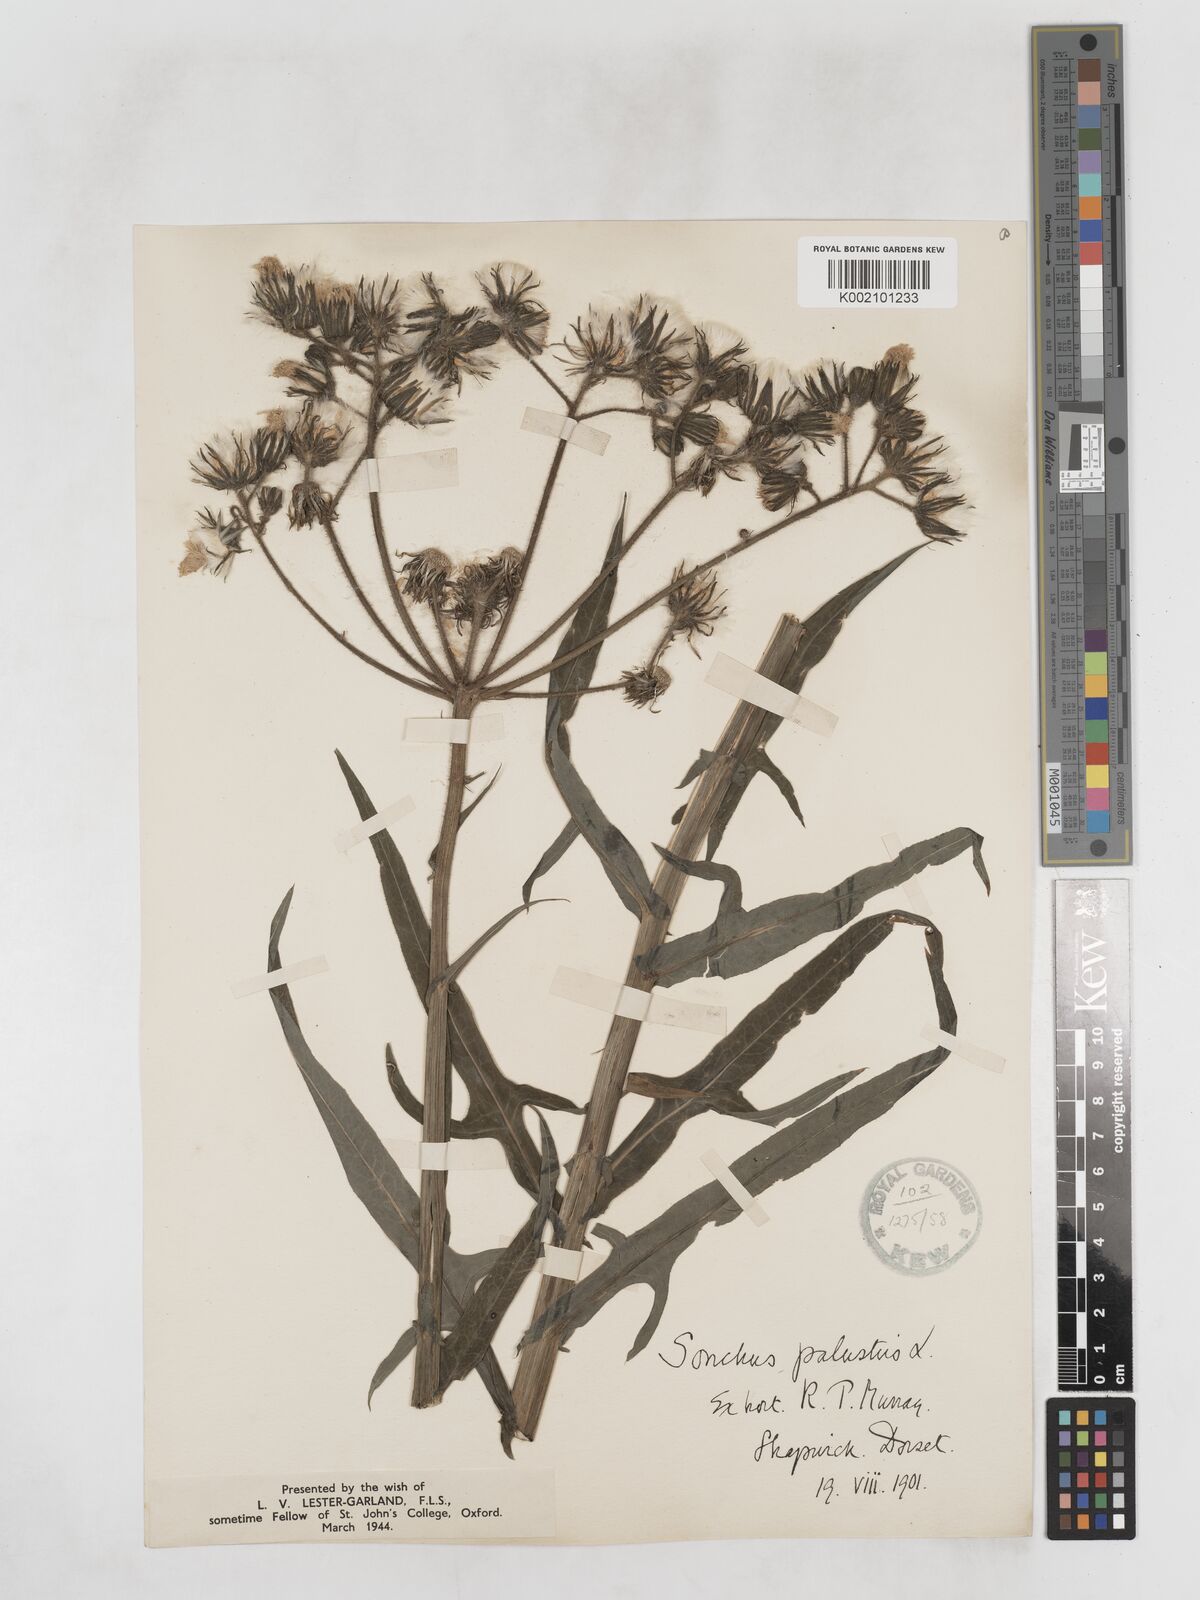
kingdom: Plantae
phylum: Tracheophyta
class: Magnoliopsida
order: Asterales
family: Asteraceae
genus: Sonchus
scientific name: Sonchus palustris
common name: Marsh sow-thistle
